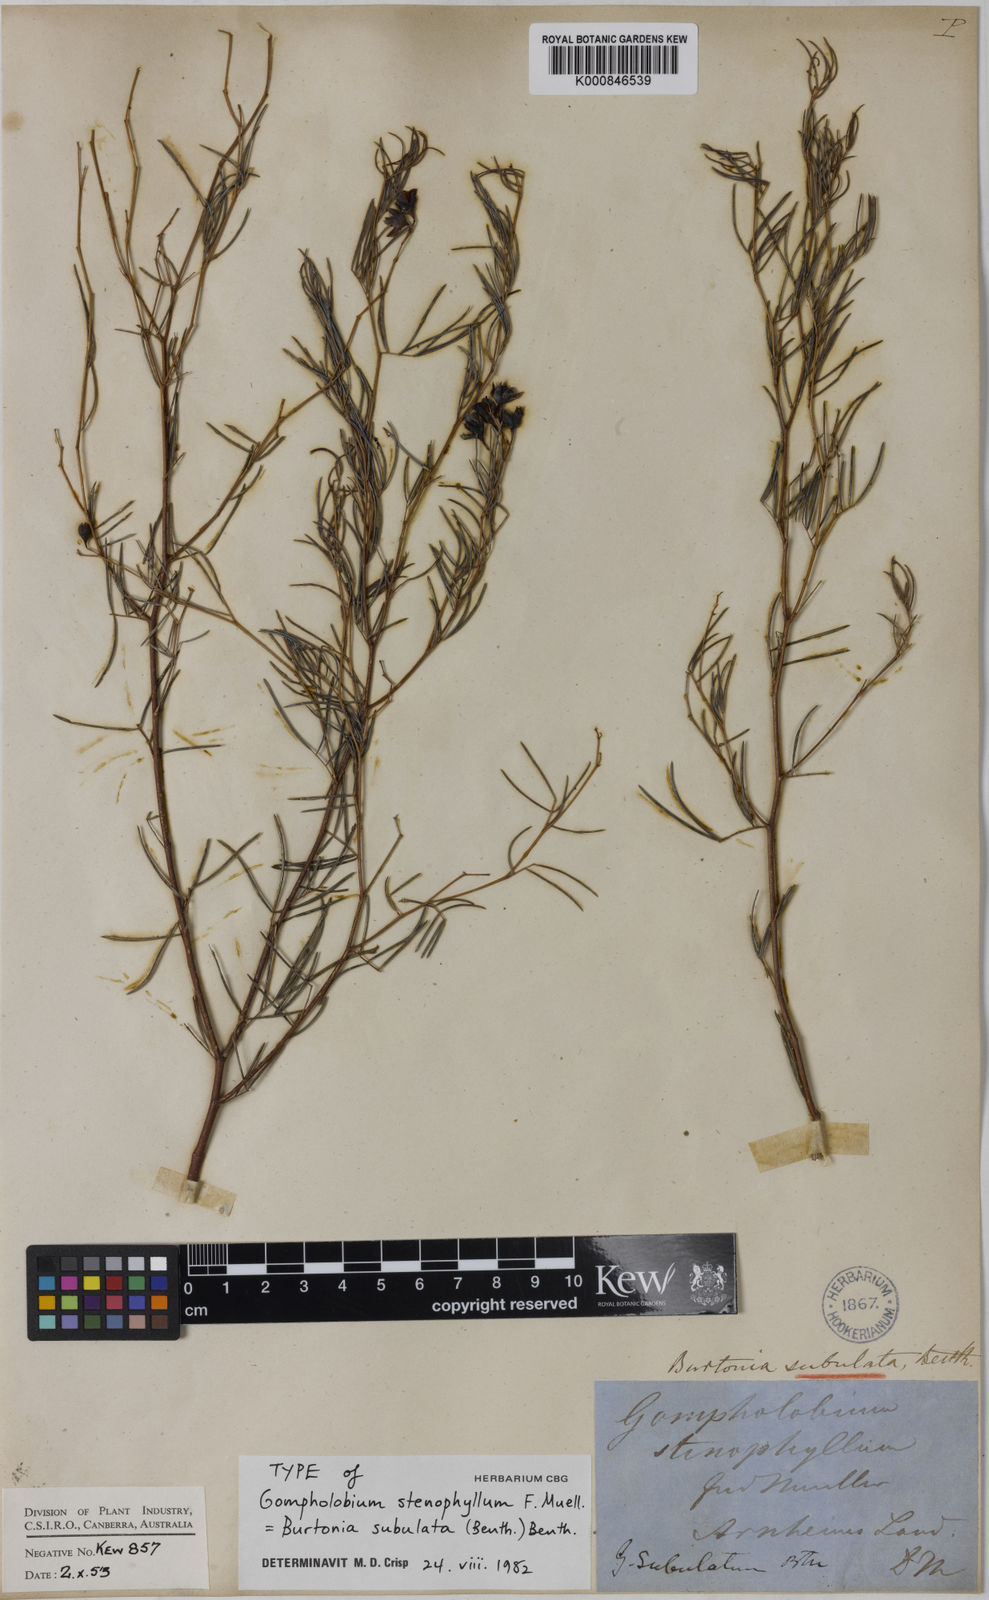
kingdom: Plantae
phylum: Tracheophyta
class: Magnoliopsida
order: Fabales
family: Fabaceae
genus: Gompholobium
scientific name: Gompholobium subulatum
